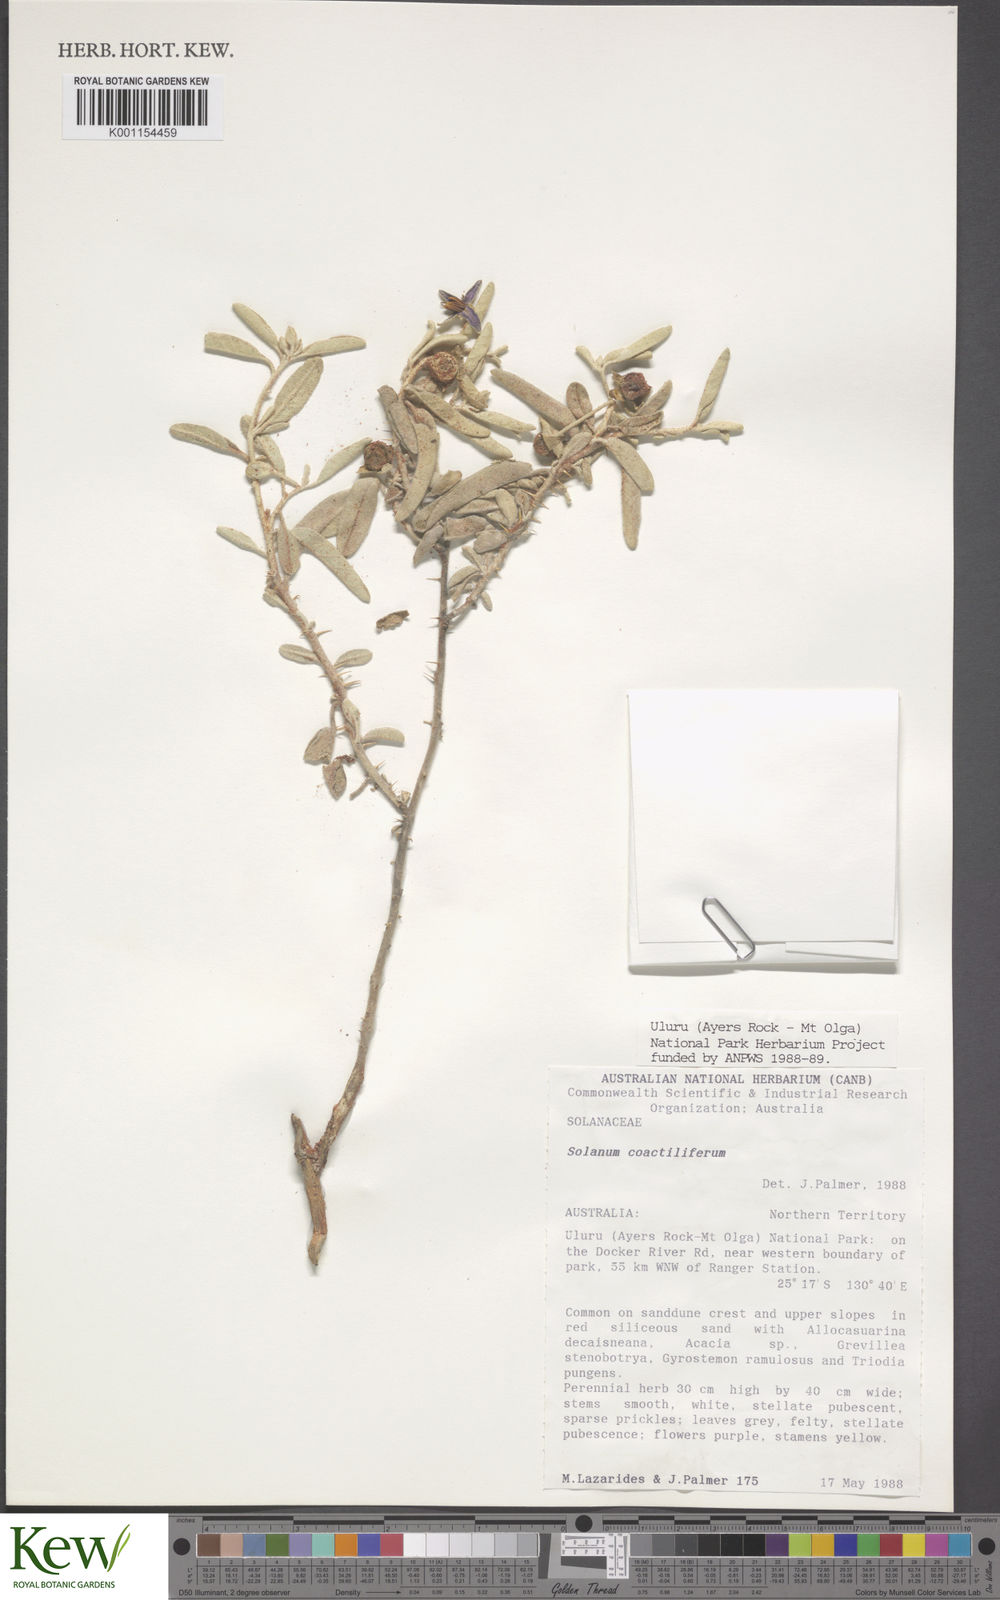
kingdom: Plantae
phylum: Tracheophyta
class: Magnoliopsida
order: Solanales
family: Solanaceae
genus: Solanum
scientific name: Solanum coactiliferum
